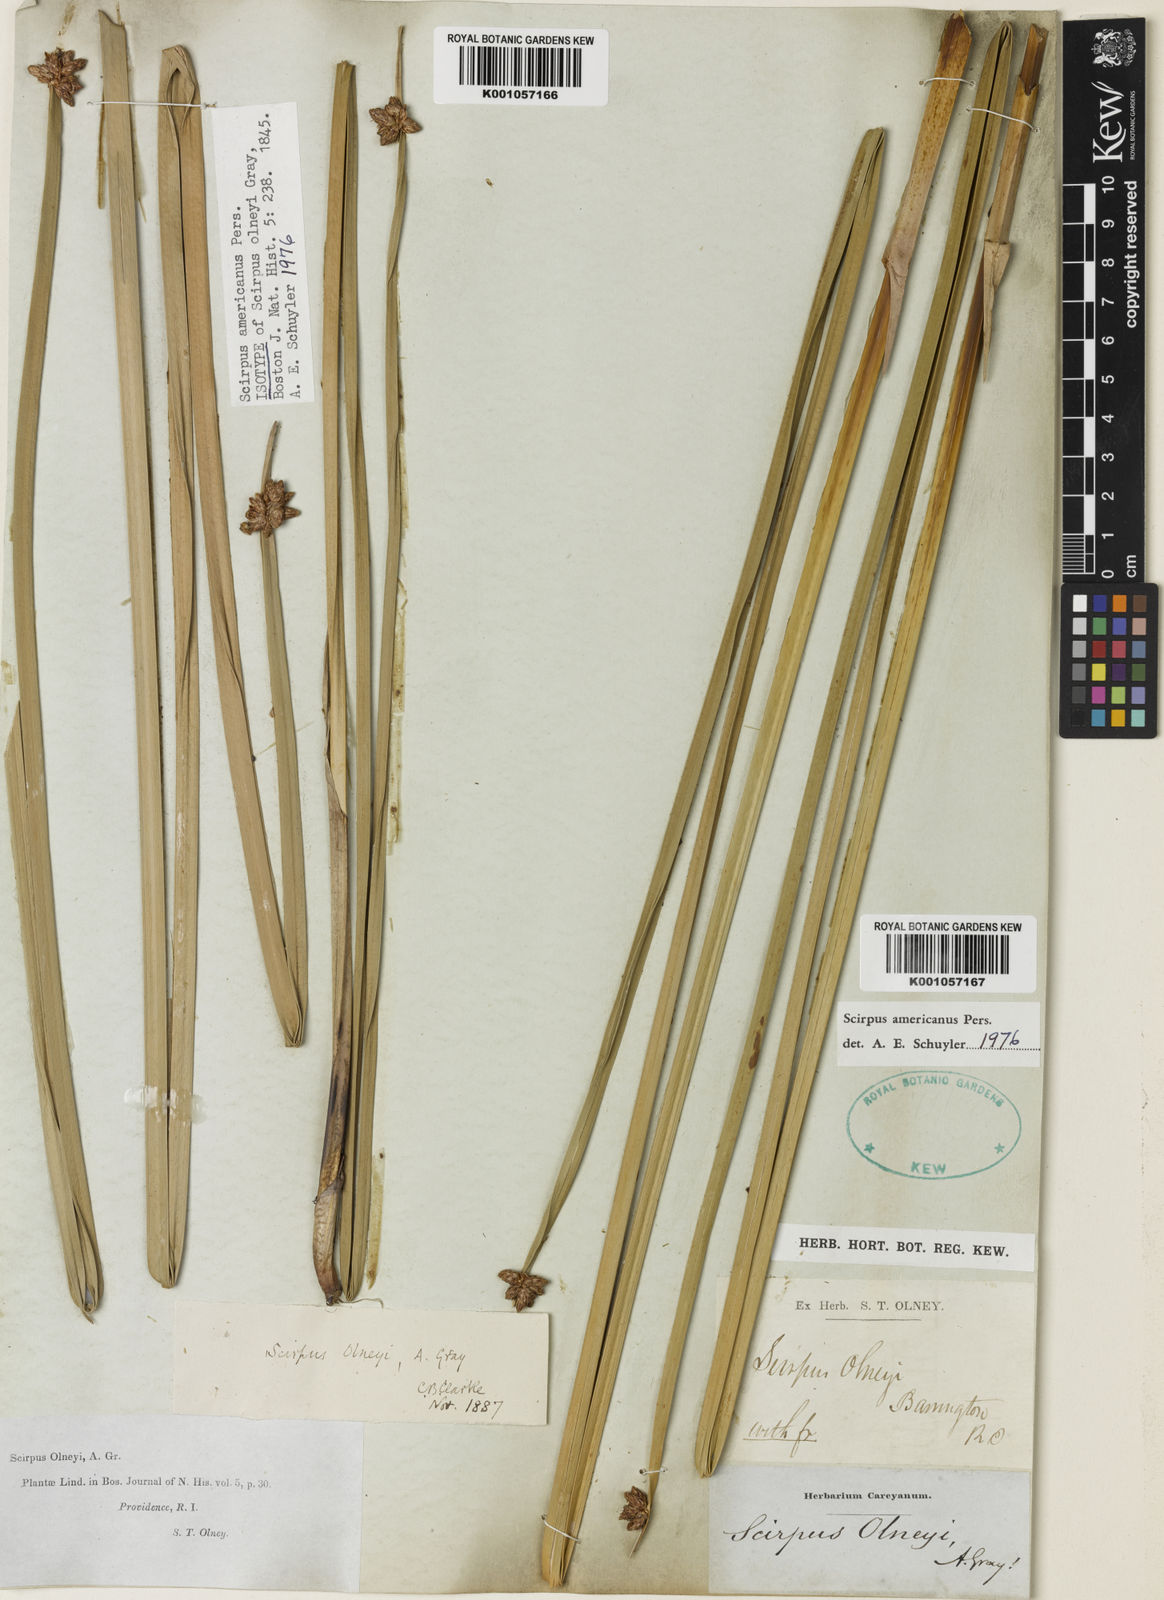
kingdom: Plantae
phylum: Tracheophyta
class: Liliopsida
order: Poales
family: Cyperaceae
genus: Schoenoplectus
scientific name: Schoenoplectus
